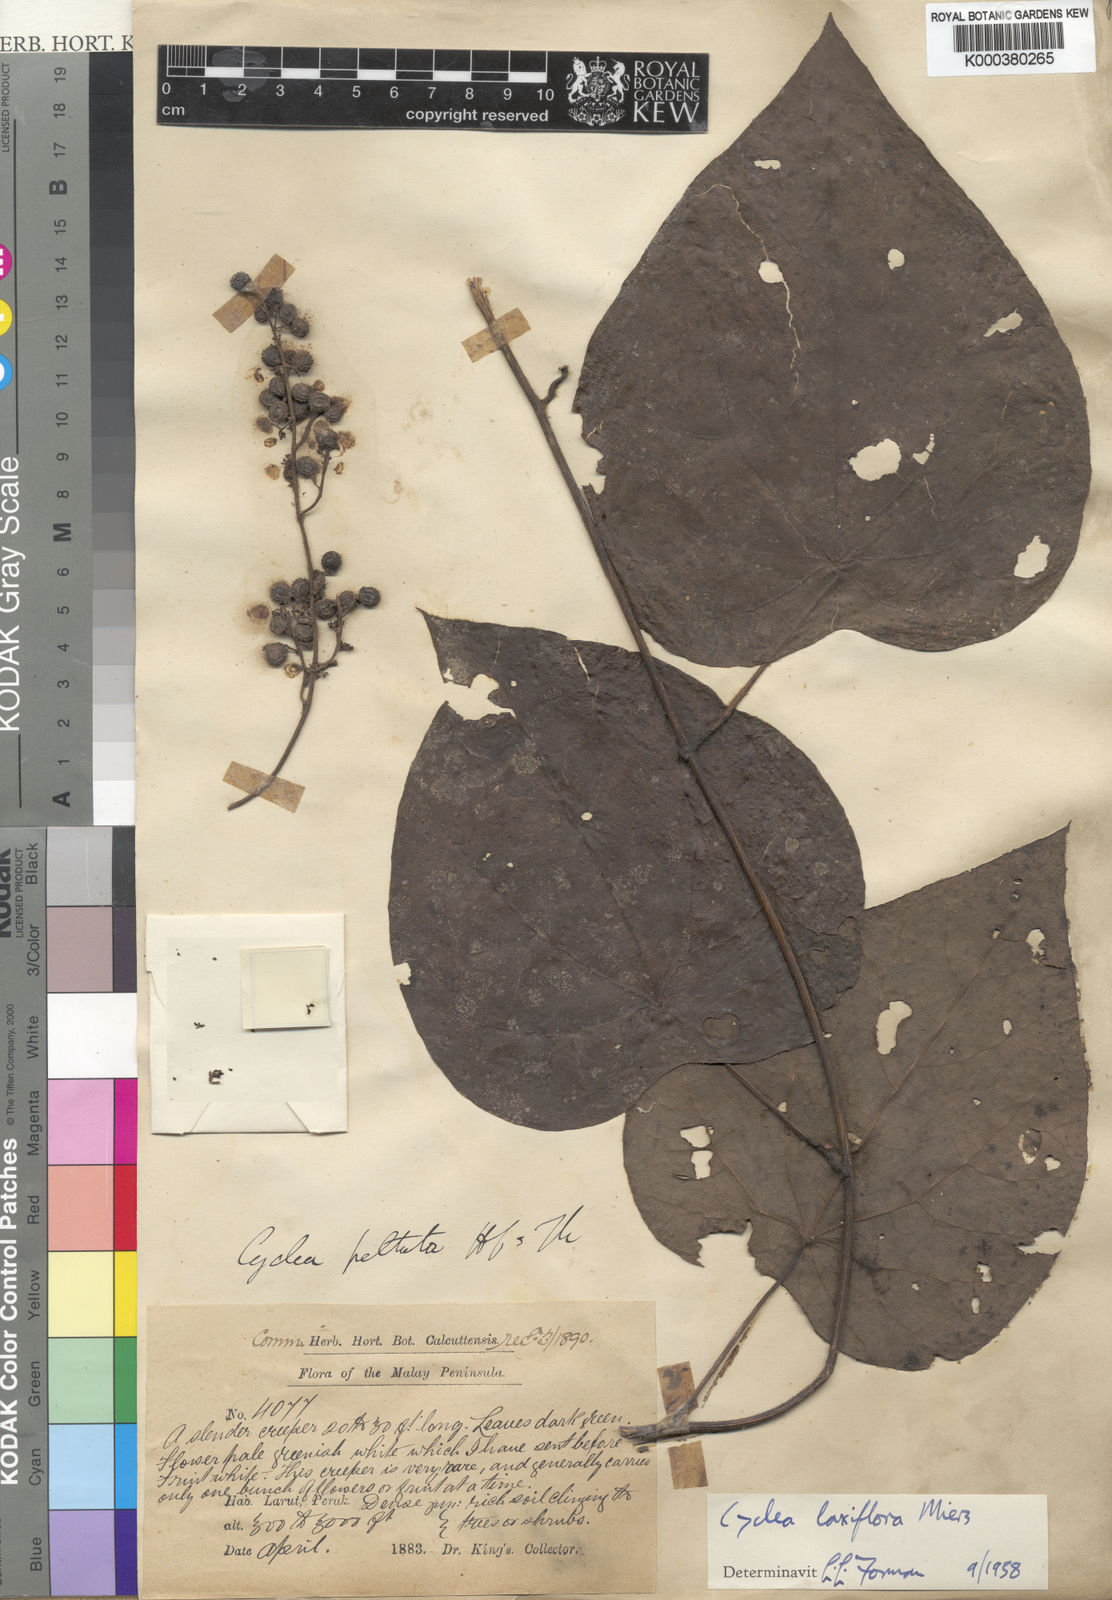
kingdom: Plantae
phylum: Tracheophyta
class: Magnoliopsida
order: Ranunculales
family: Menispermaceae
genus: Cyclea
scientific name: Cyclea laxiflora
